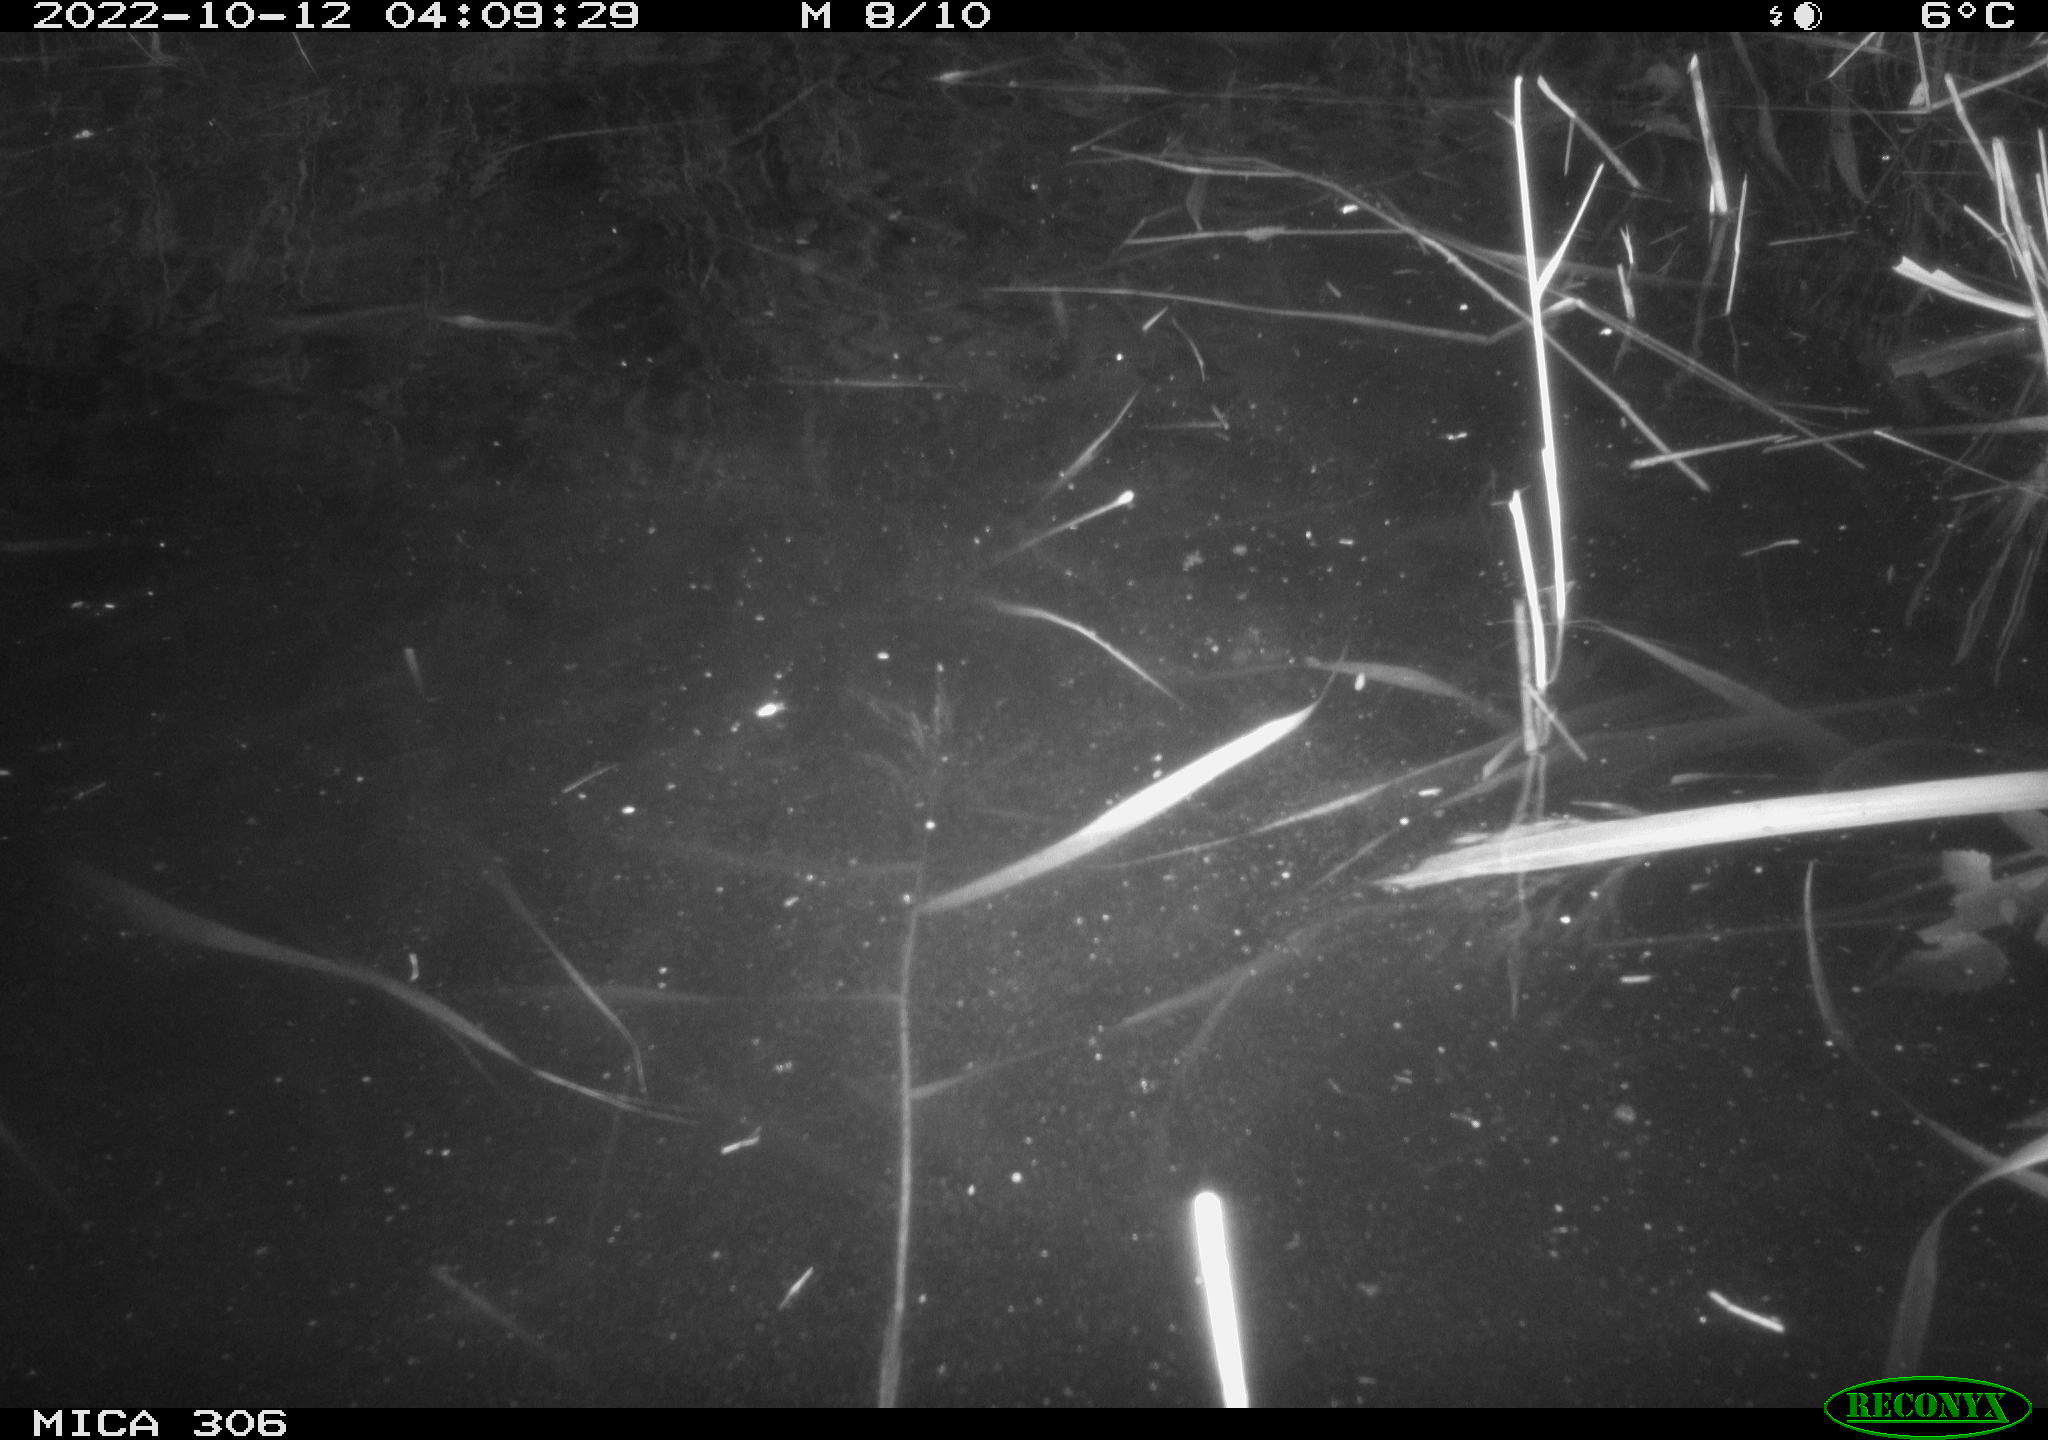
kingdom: Animalia
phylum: Chordata
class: Mammalia
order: Rodentia
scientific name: Rodentia
